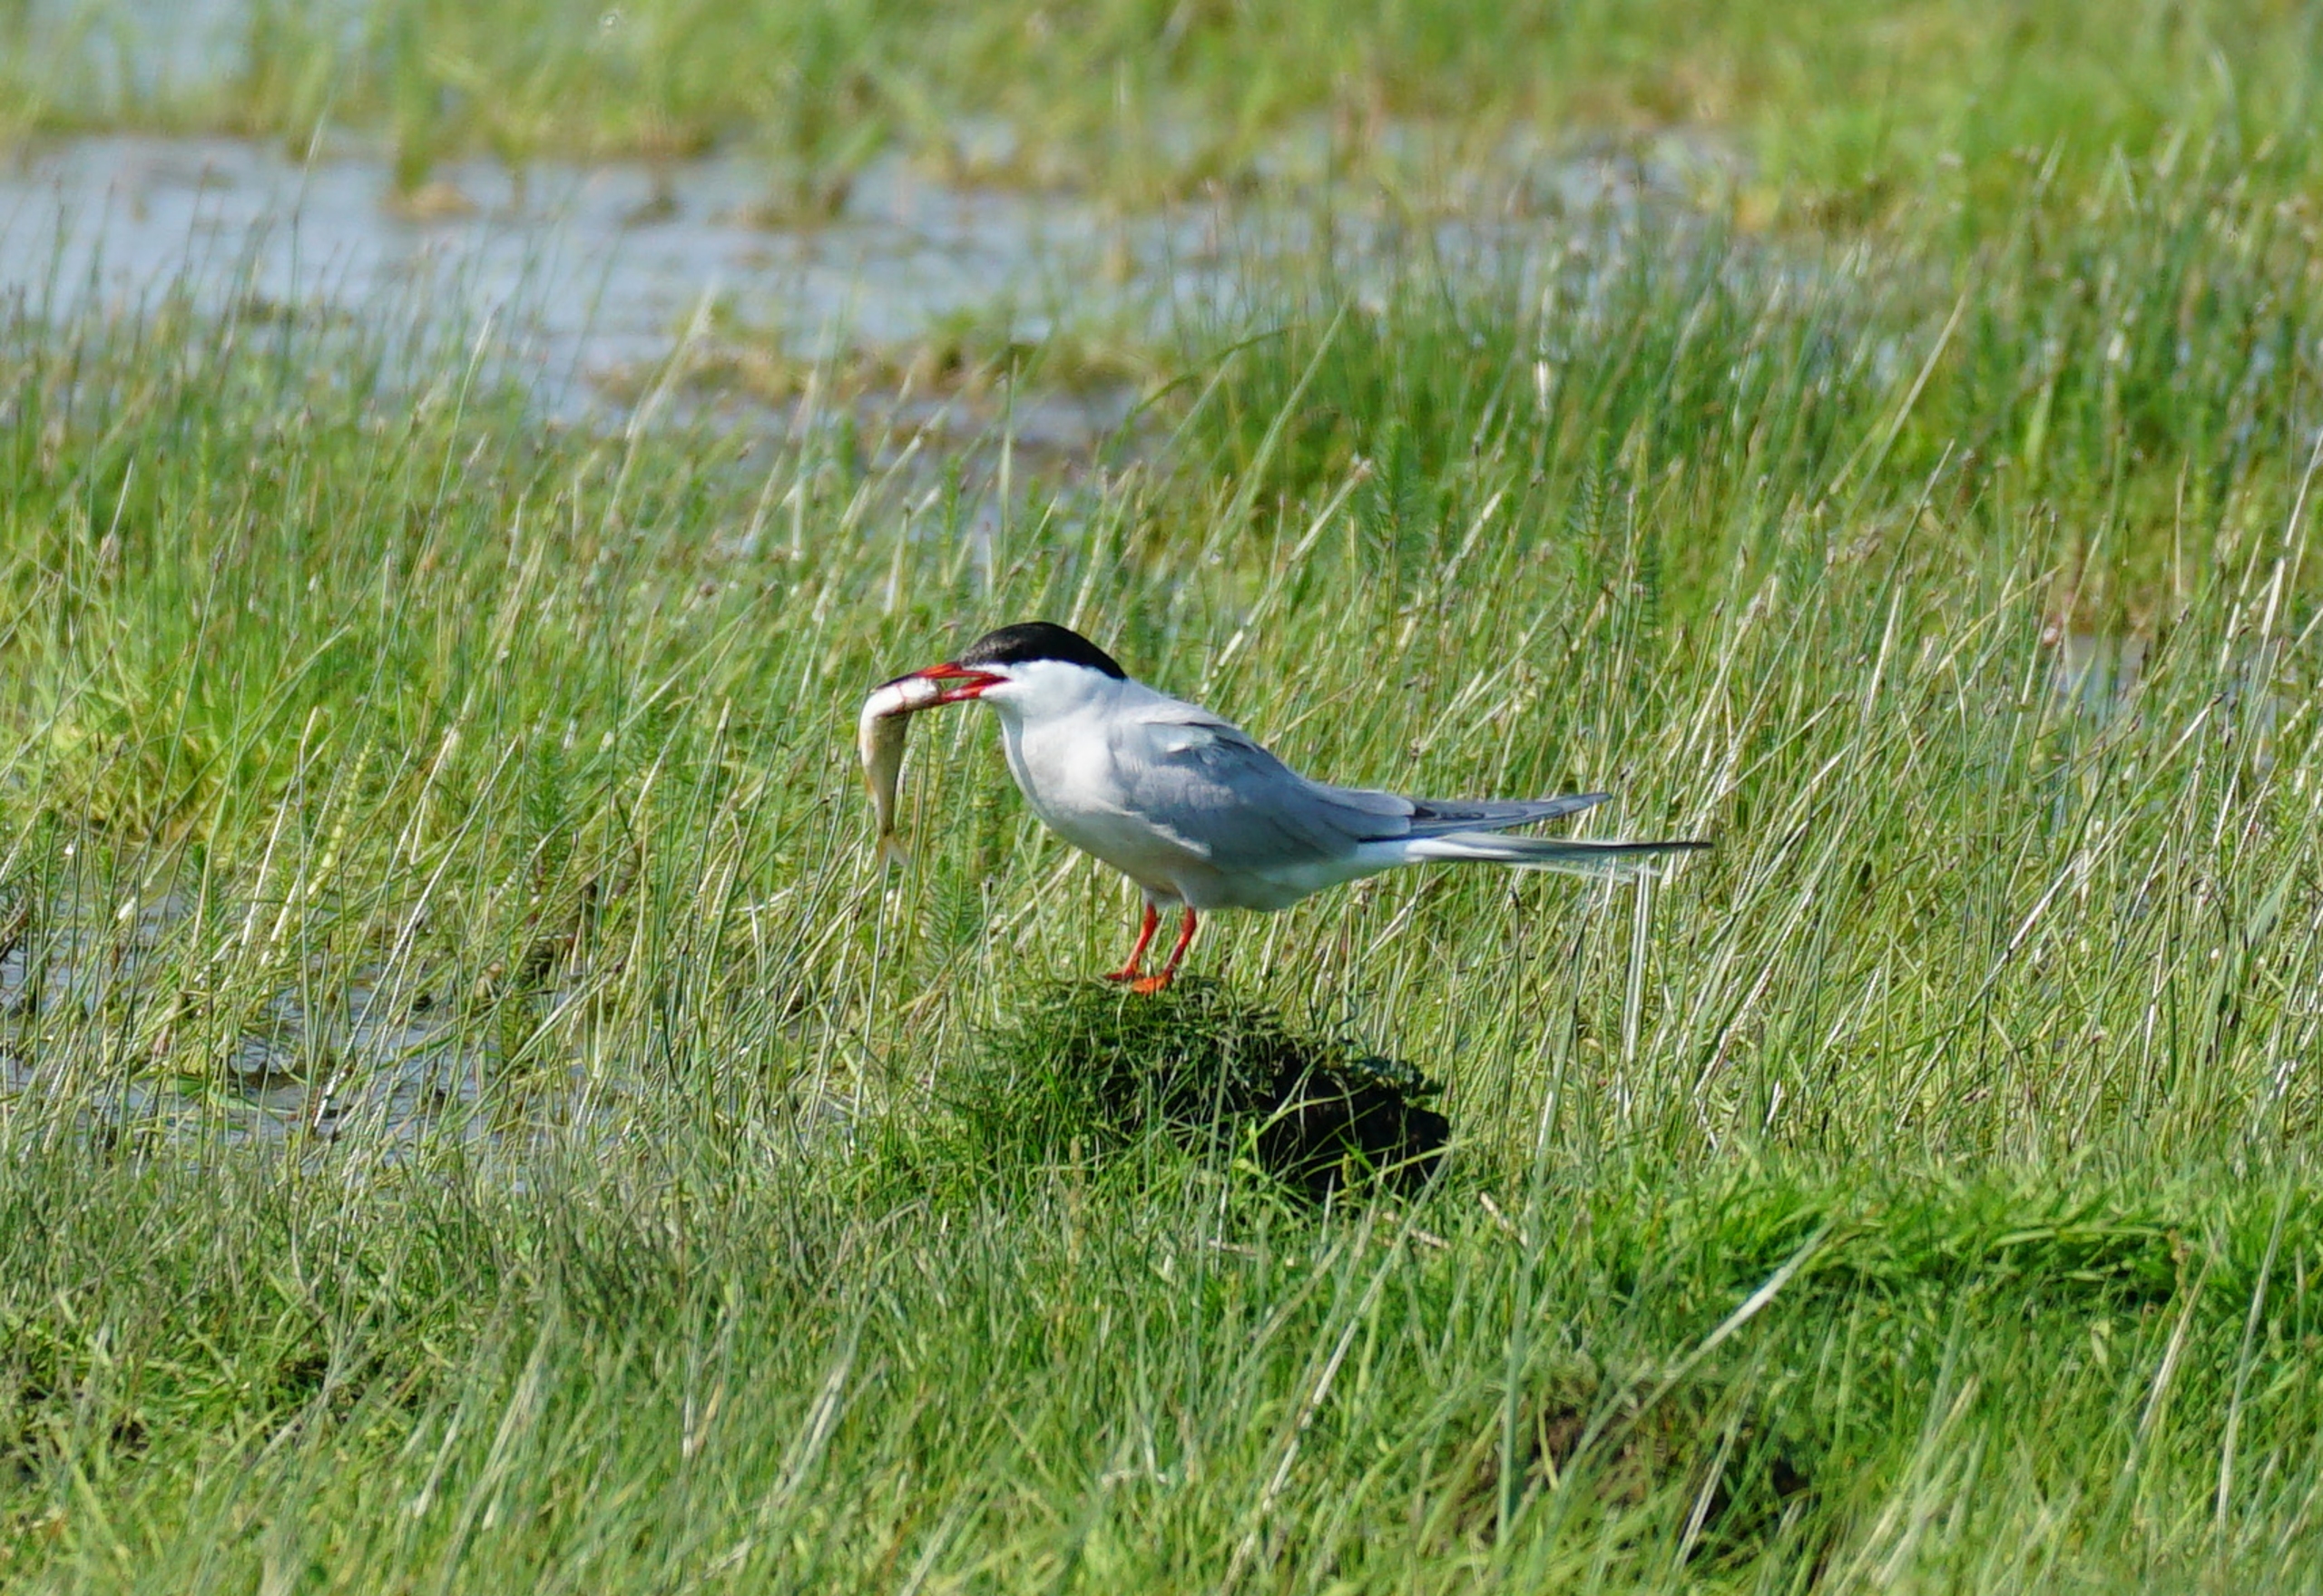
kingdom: Animalia
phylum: Chordata
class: Aves
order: Charadriiformes
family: Laridae
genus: Sterna
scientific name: Sterna hirundo
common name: Fjordterne
